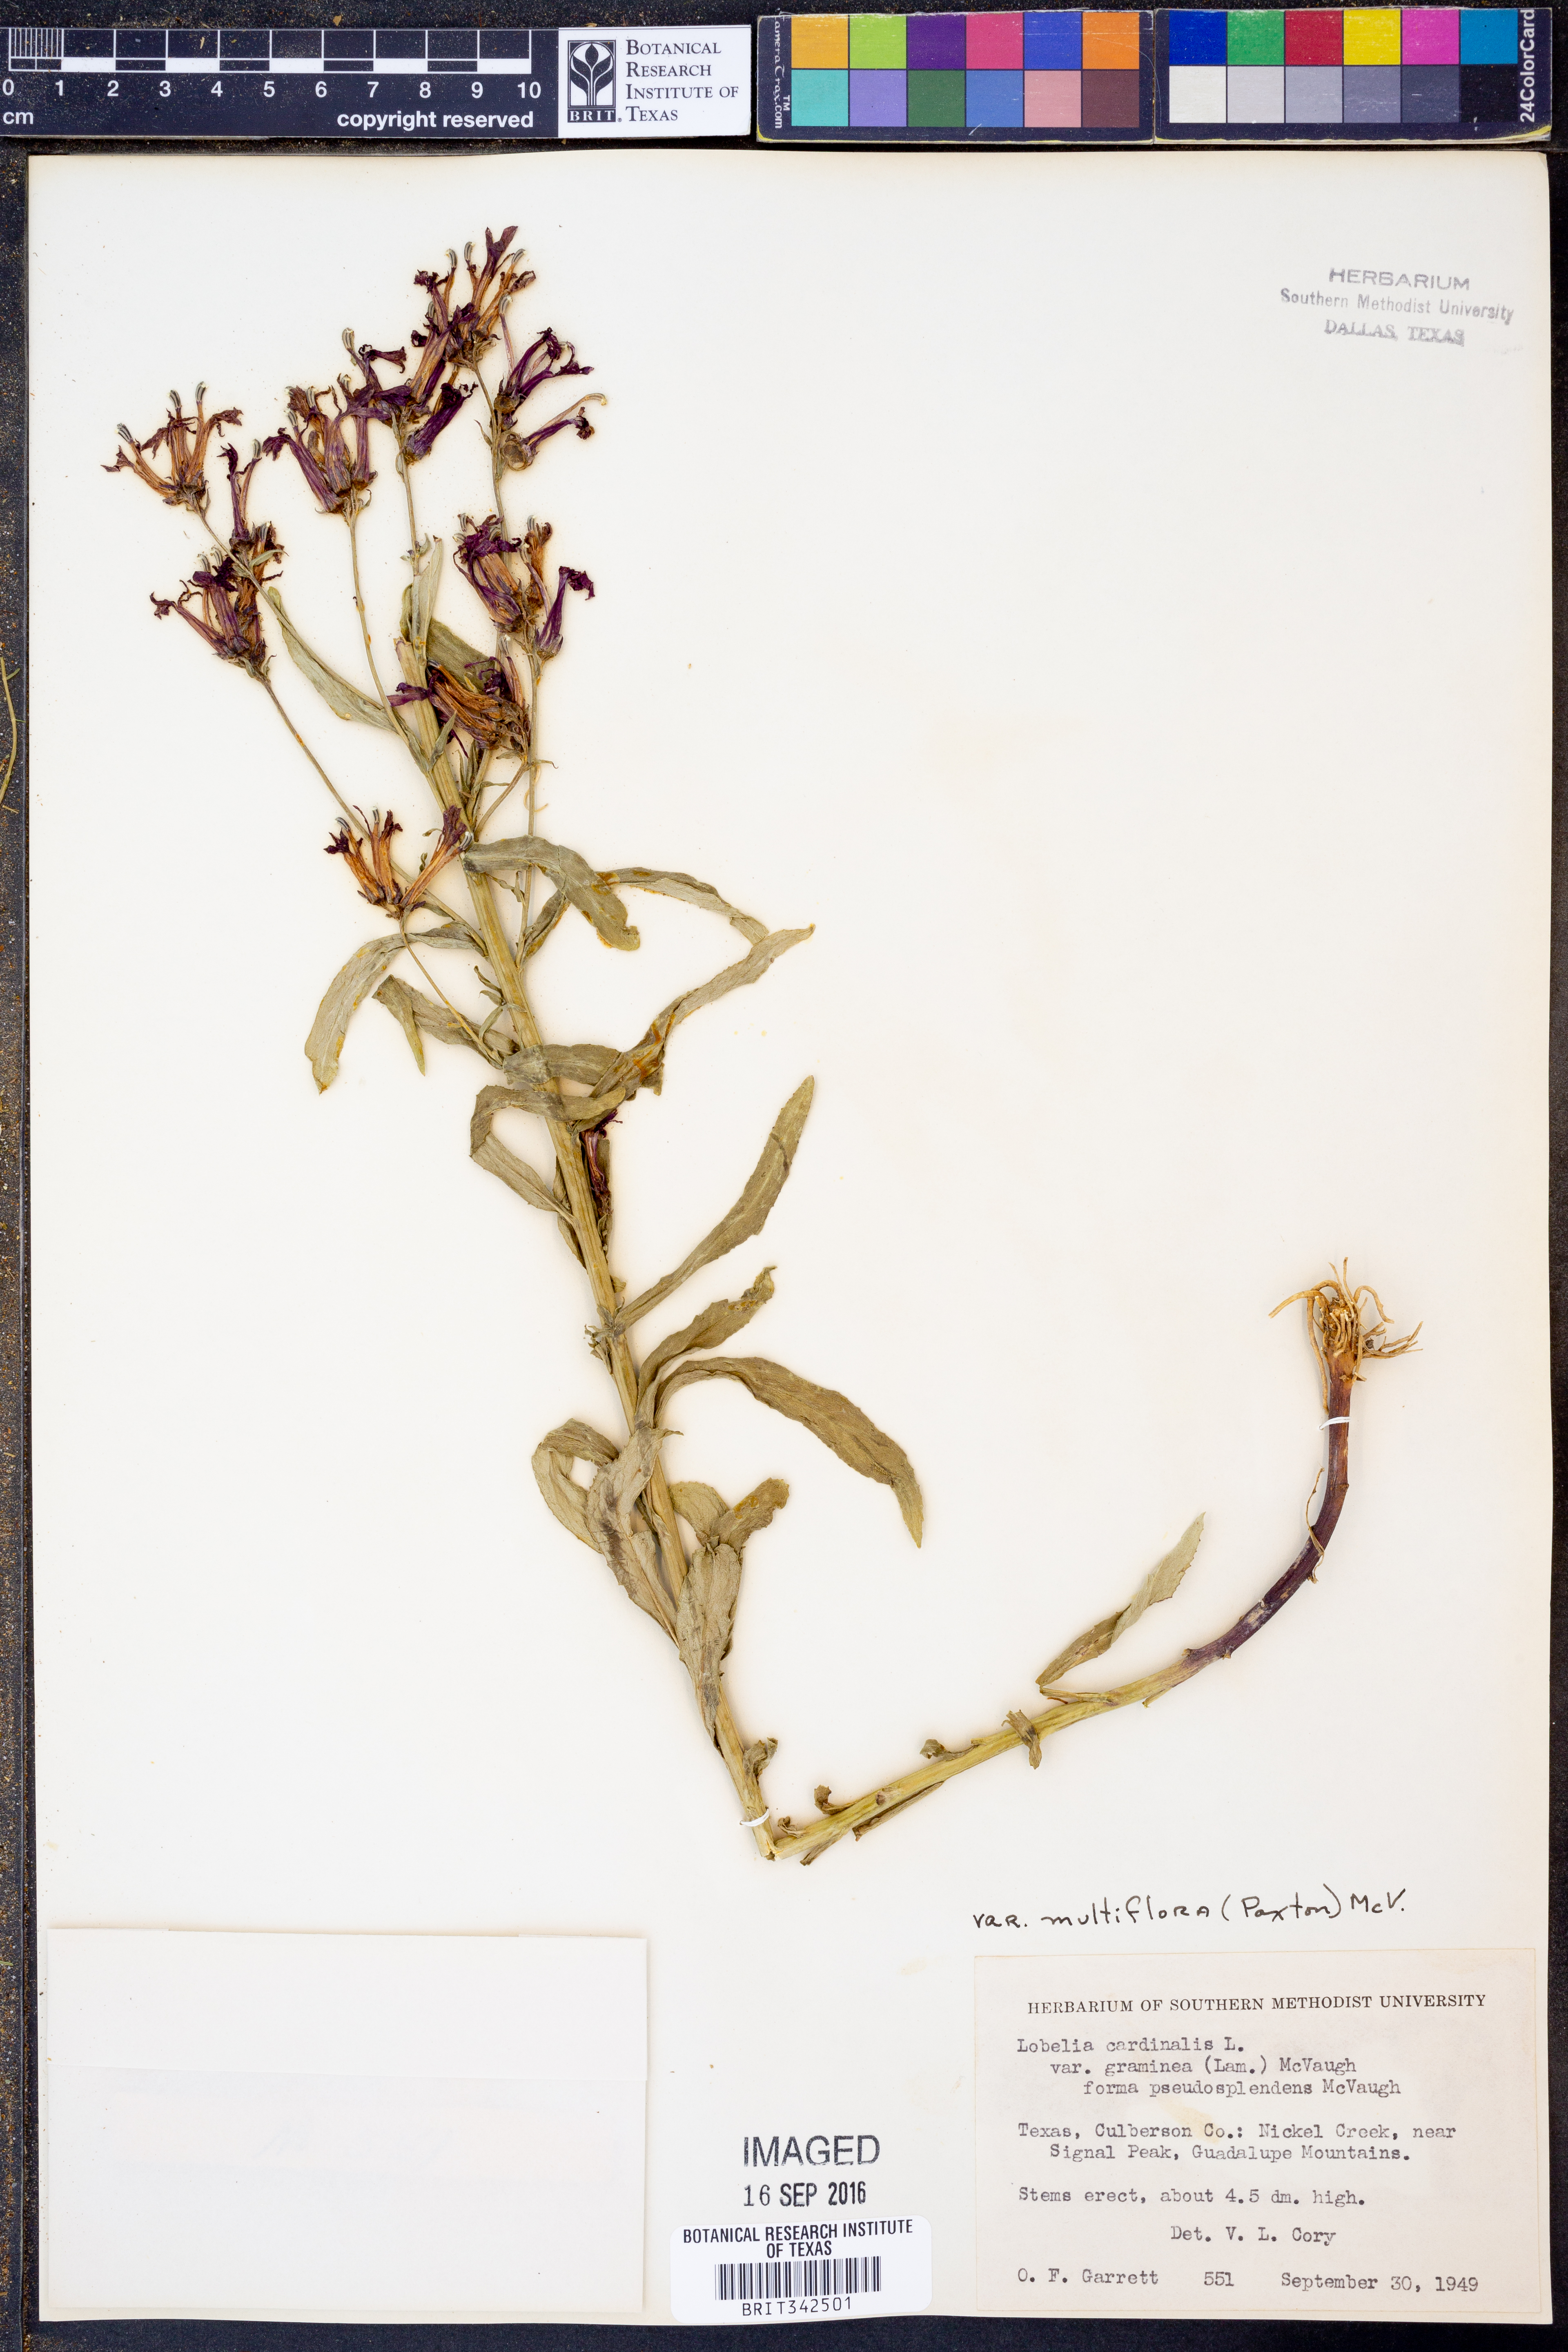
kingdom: Plantae
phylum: Tracheophyta
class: Magnoliopsida
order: Asterales
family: Campanulaceae
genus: Lobelia
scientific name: Lobelia cardinalis
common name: Cardinal flower
